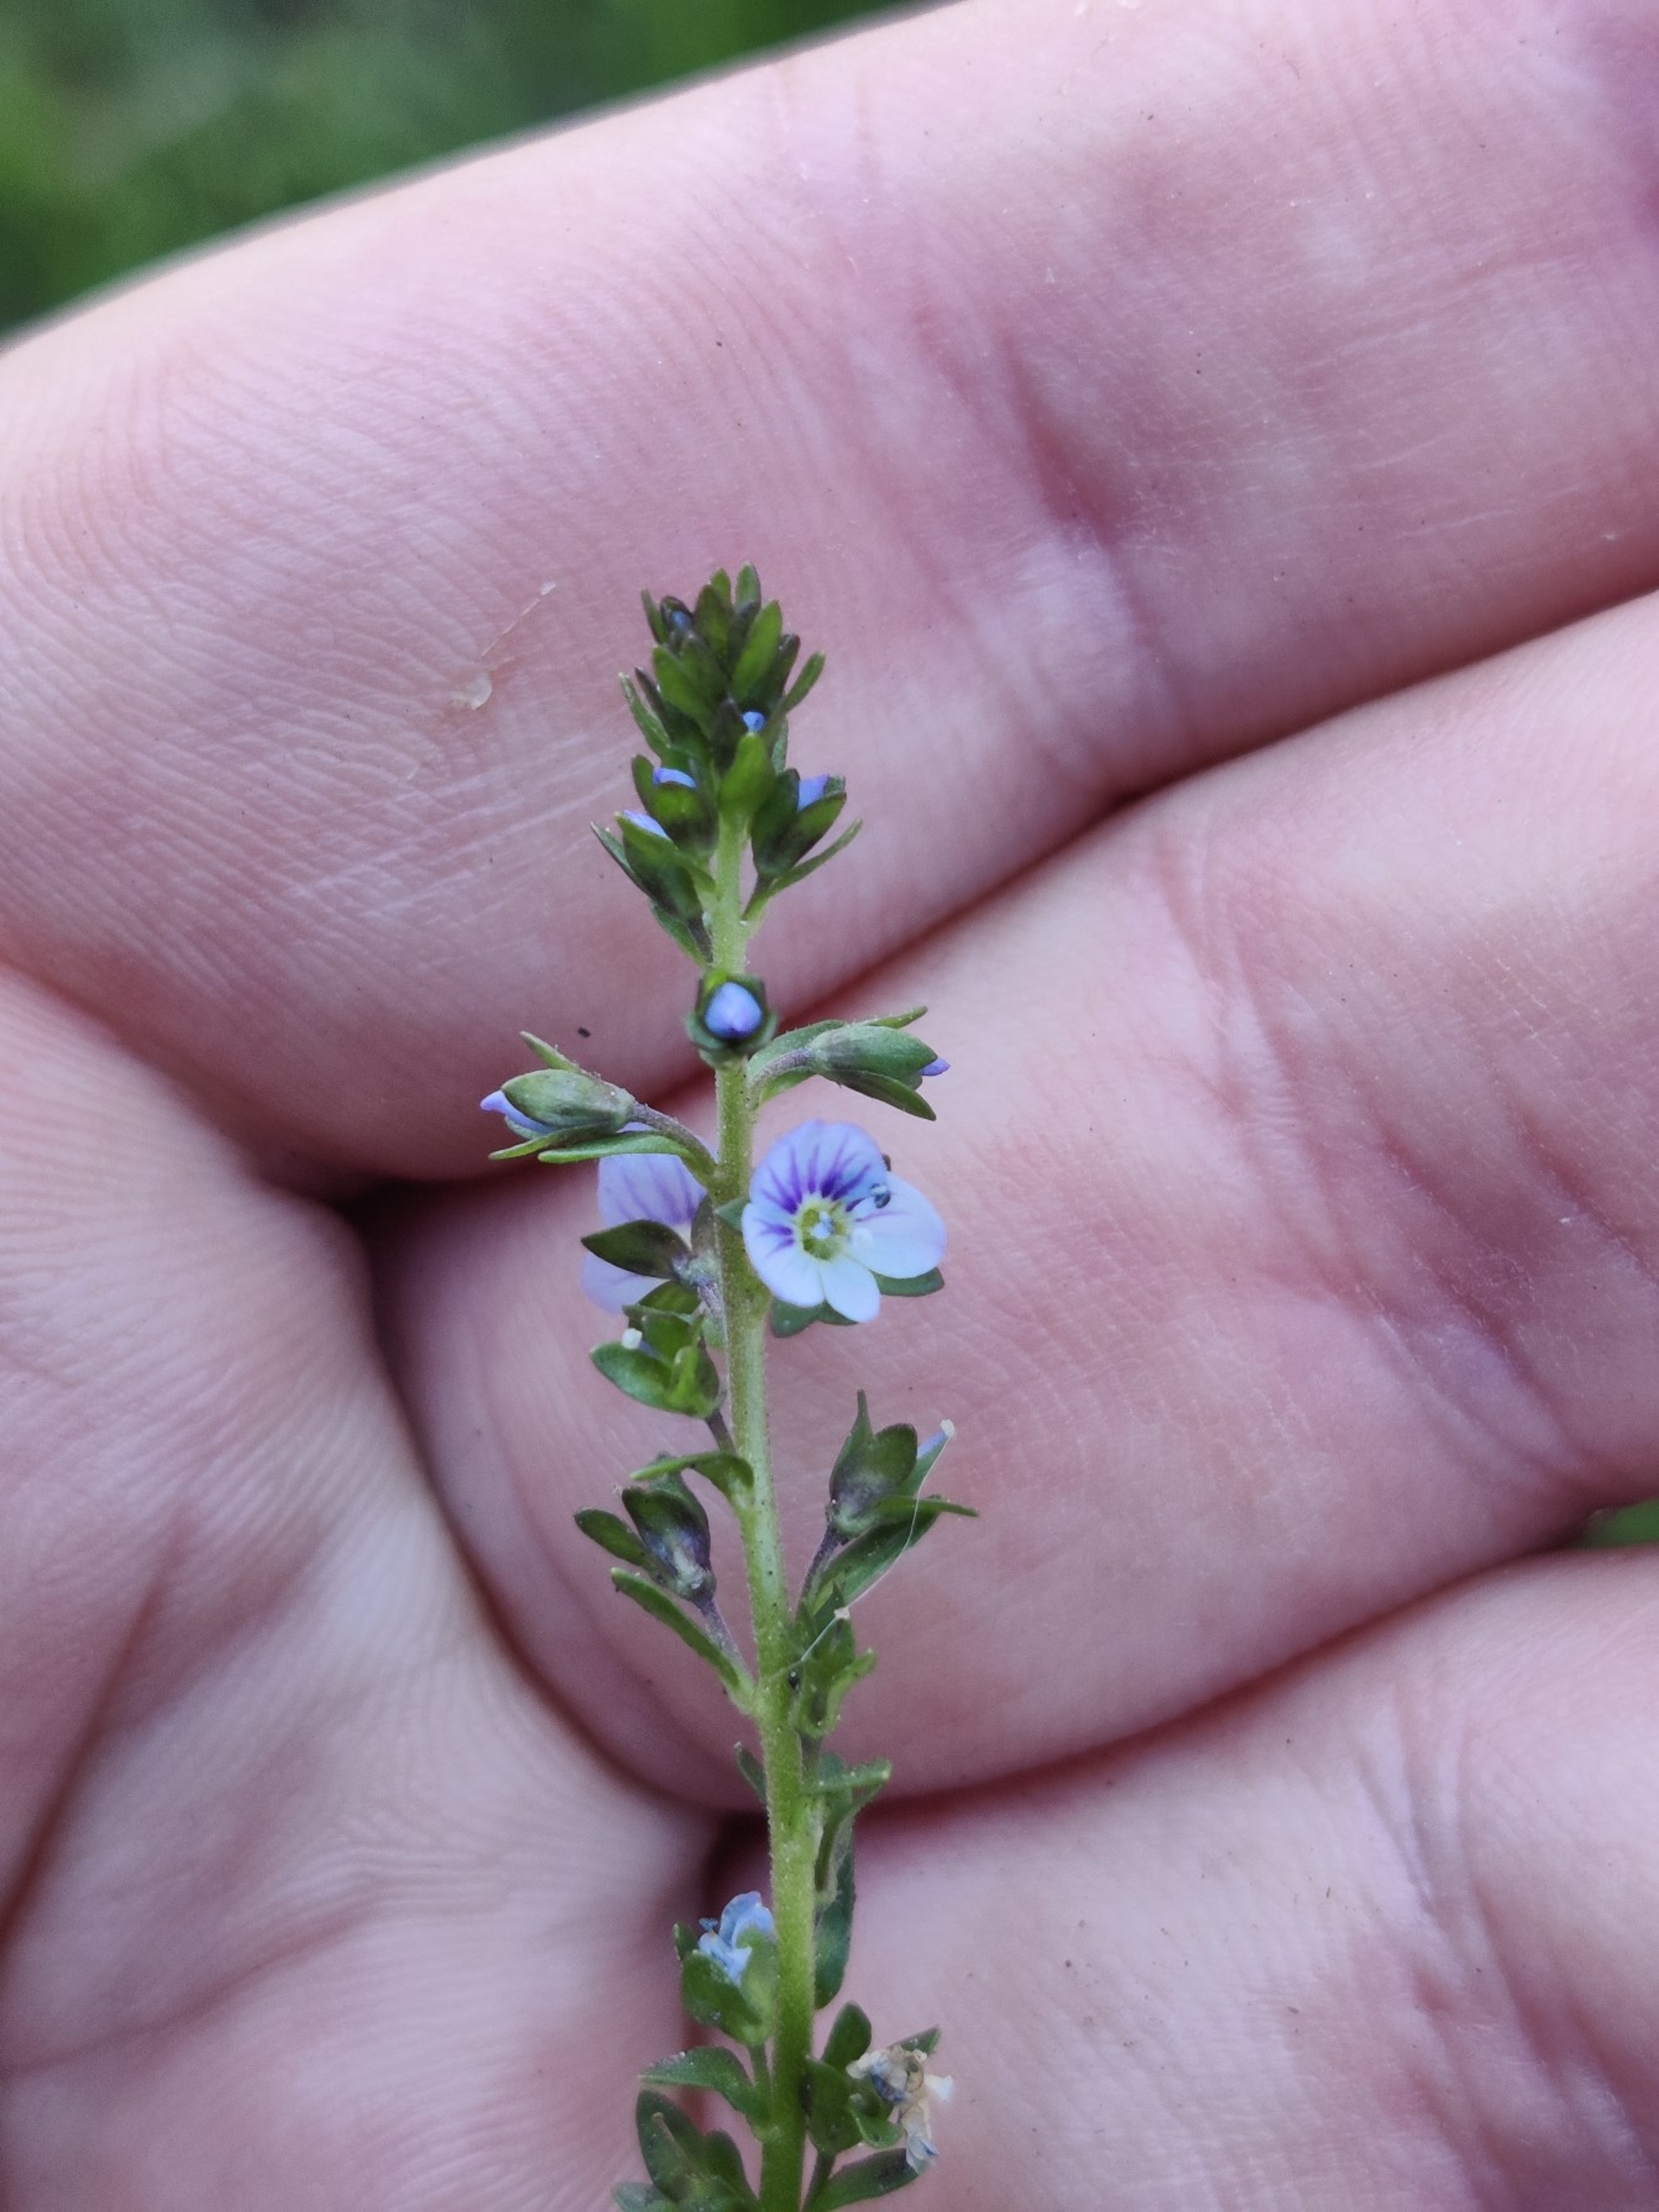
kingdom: Plantae
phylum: Tracheophyta
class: Magnoliopsida
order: Lamiales
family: Plantaginaceae
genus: Veronica
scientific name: Veronica serpyllifolia
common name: Glat ærenpris
